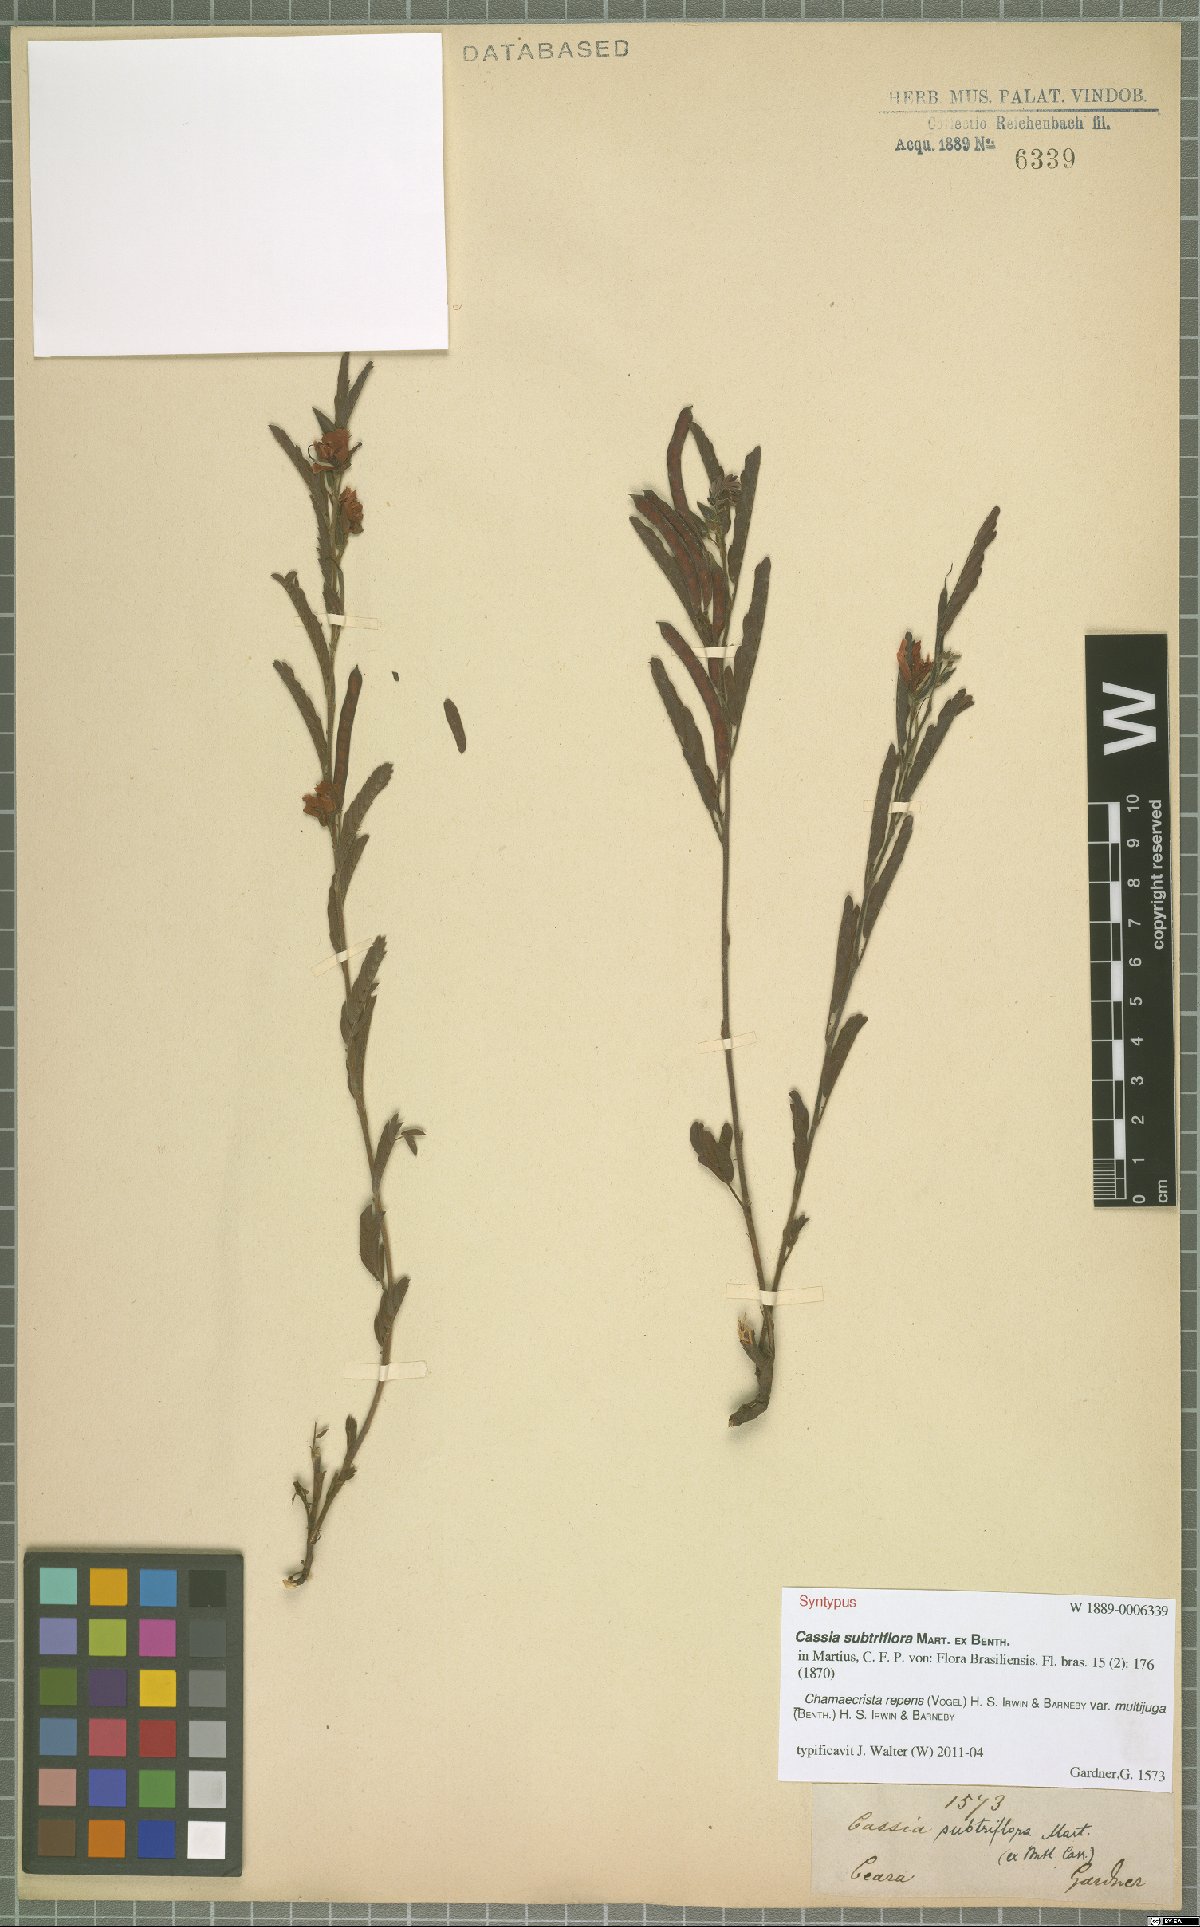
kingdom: Plantae
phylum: Tracheophyta
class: Magnoliopsida
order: Fabales
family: Fabaceae
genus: Chamaecrista
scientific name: Chamaecrista repens
